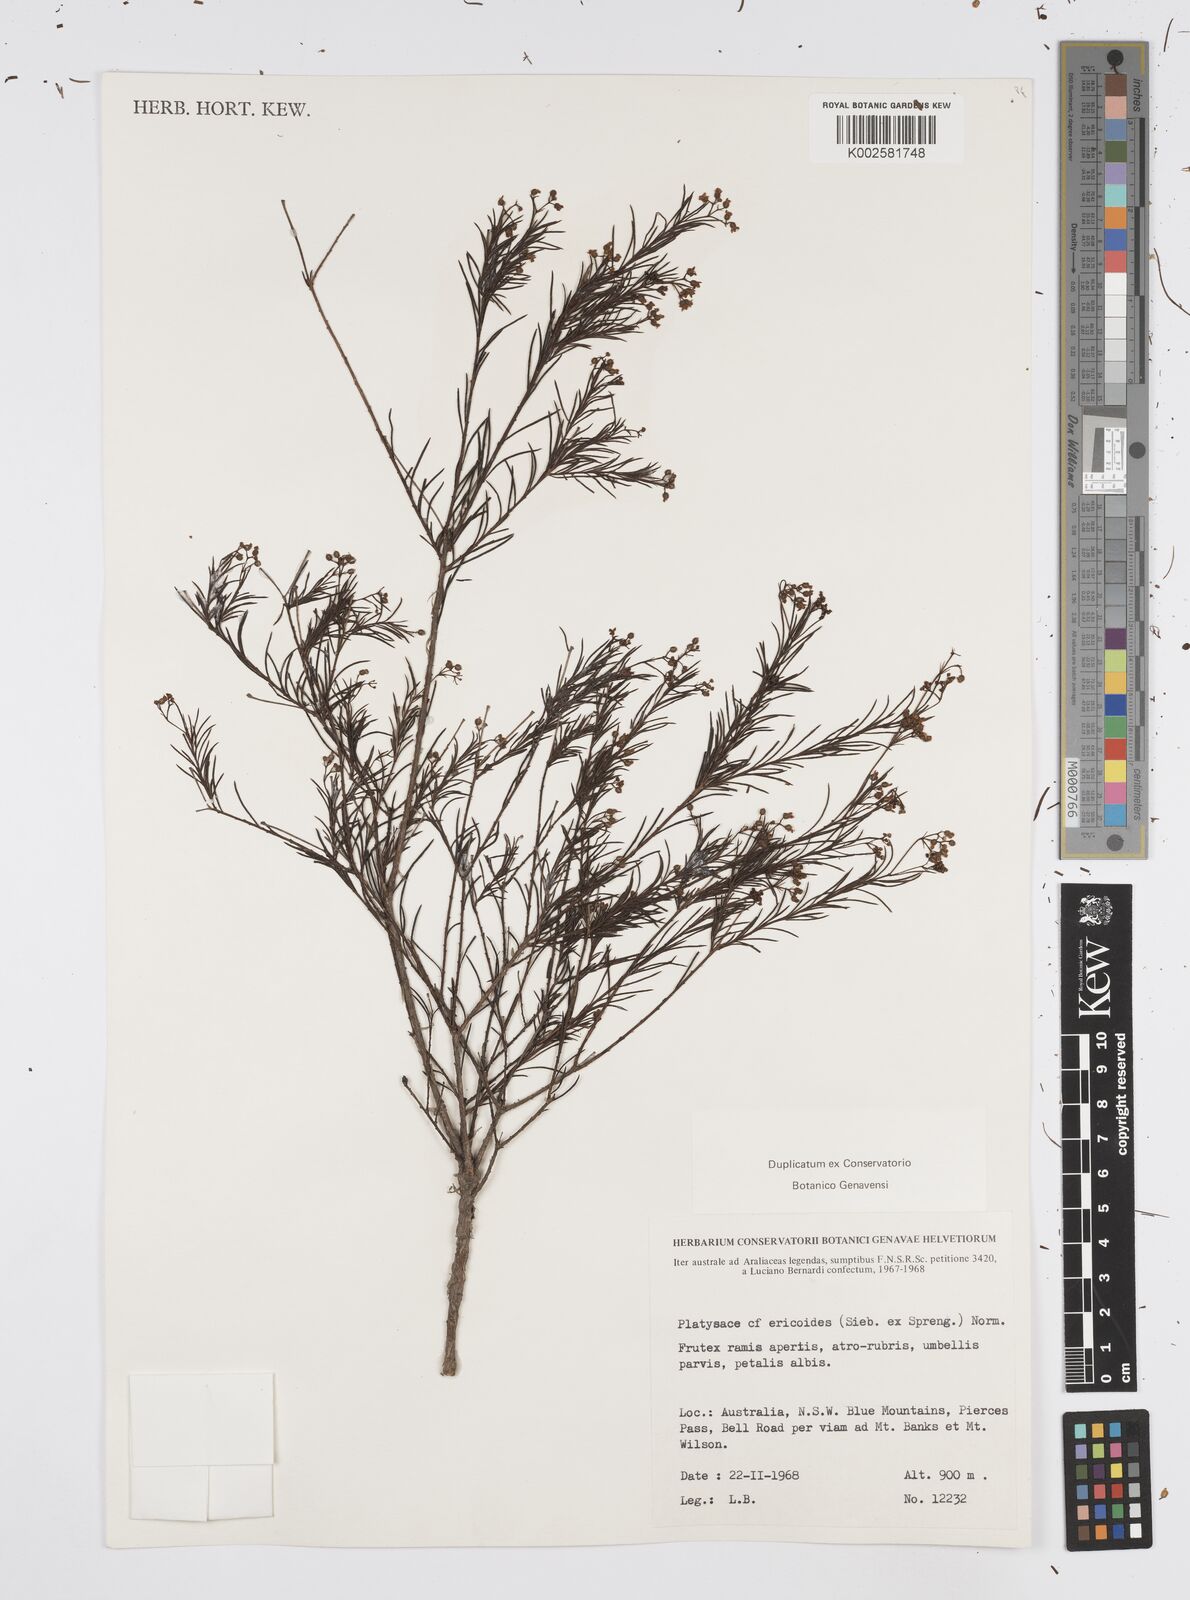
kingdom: Plantae
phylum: Tracheophyta
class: Magnoliopsida
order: Apiales
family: Apiaceae
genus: Platysace
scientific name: Platysace ericoides
